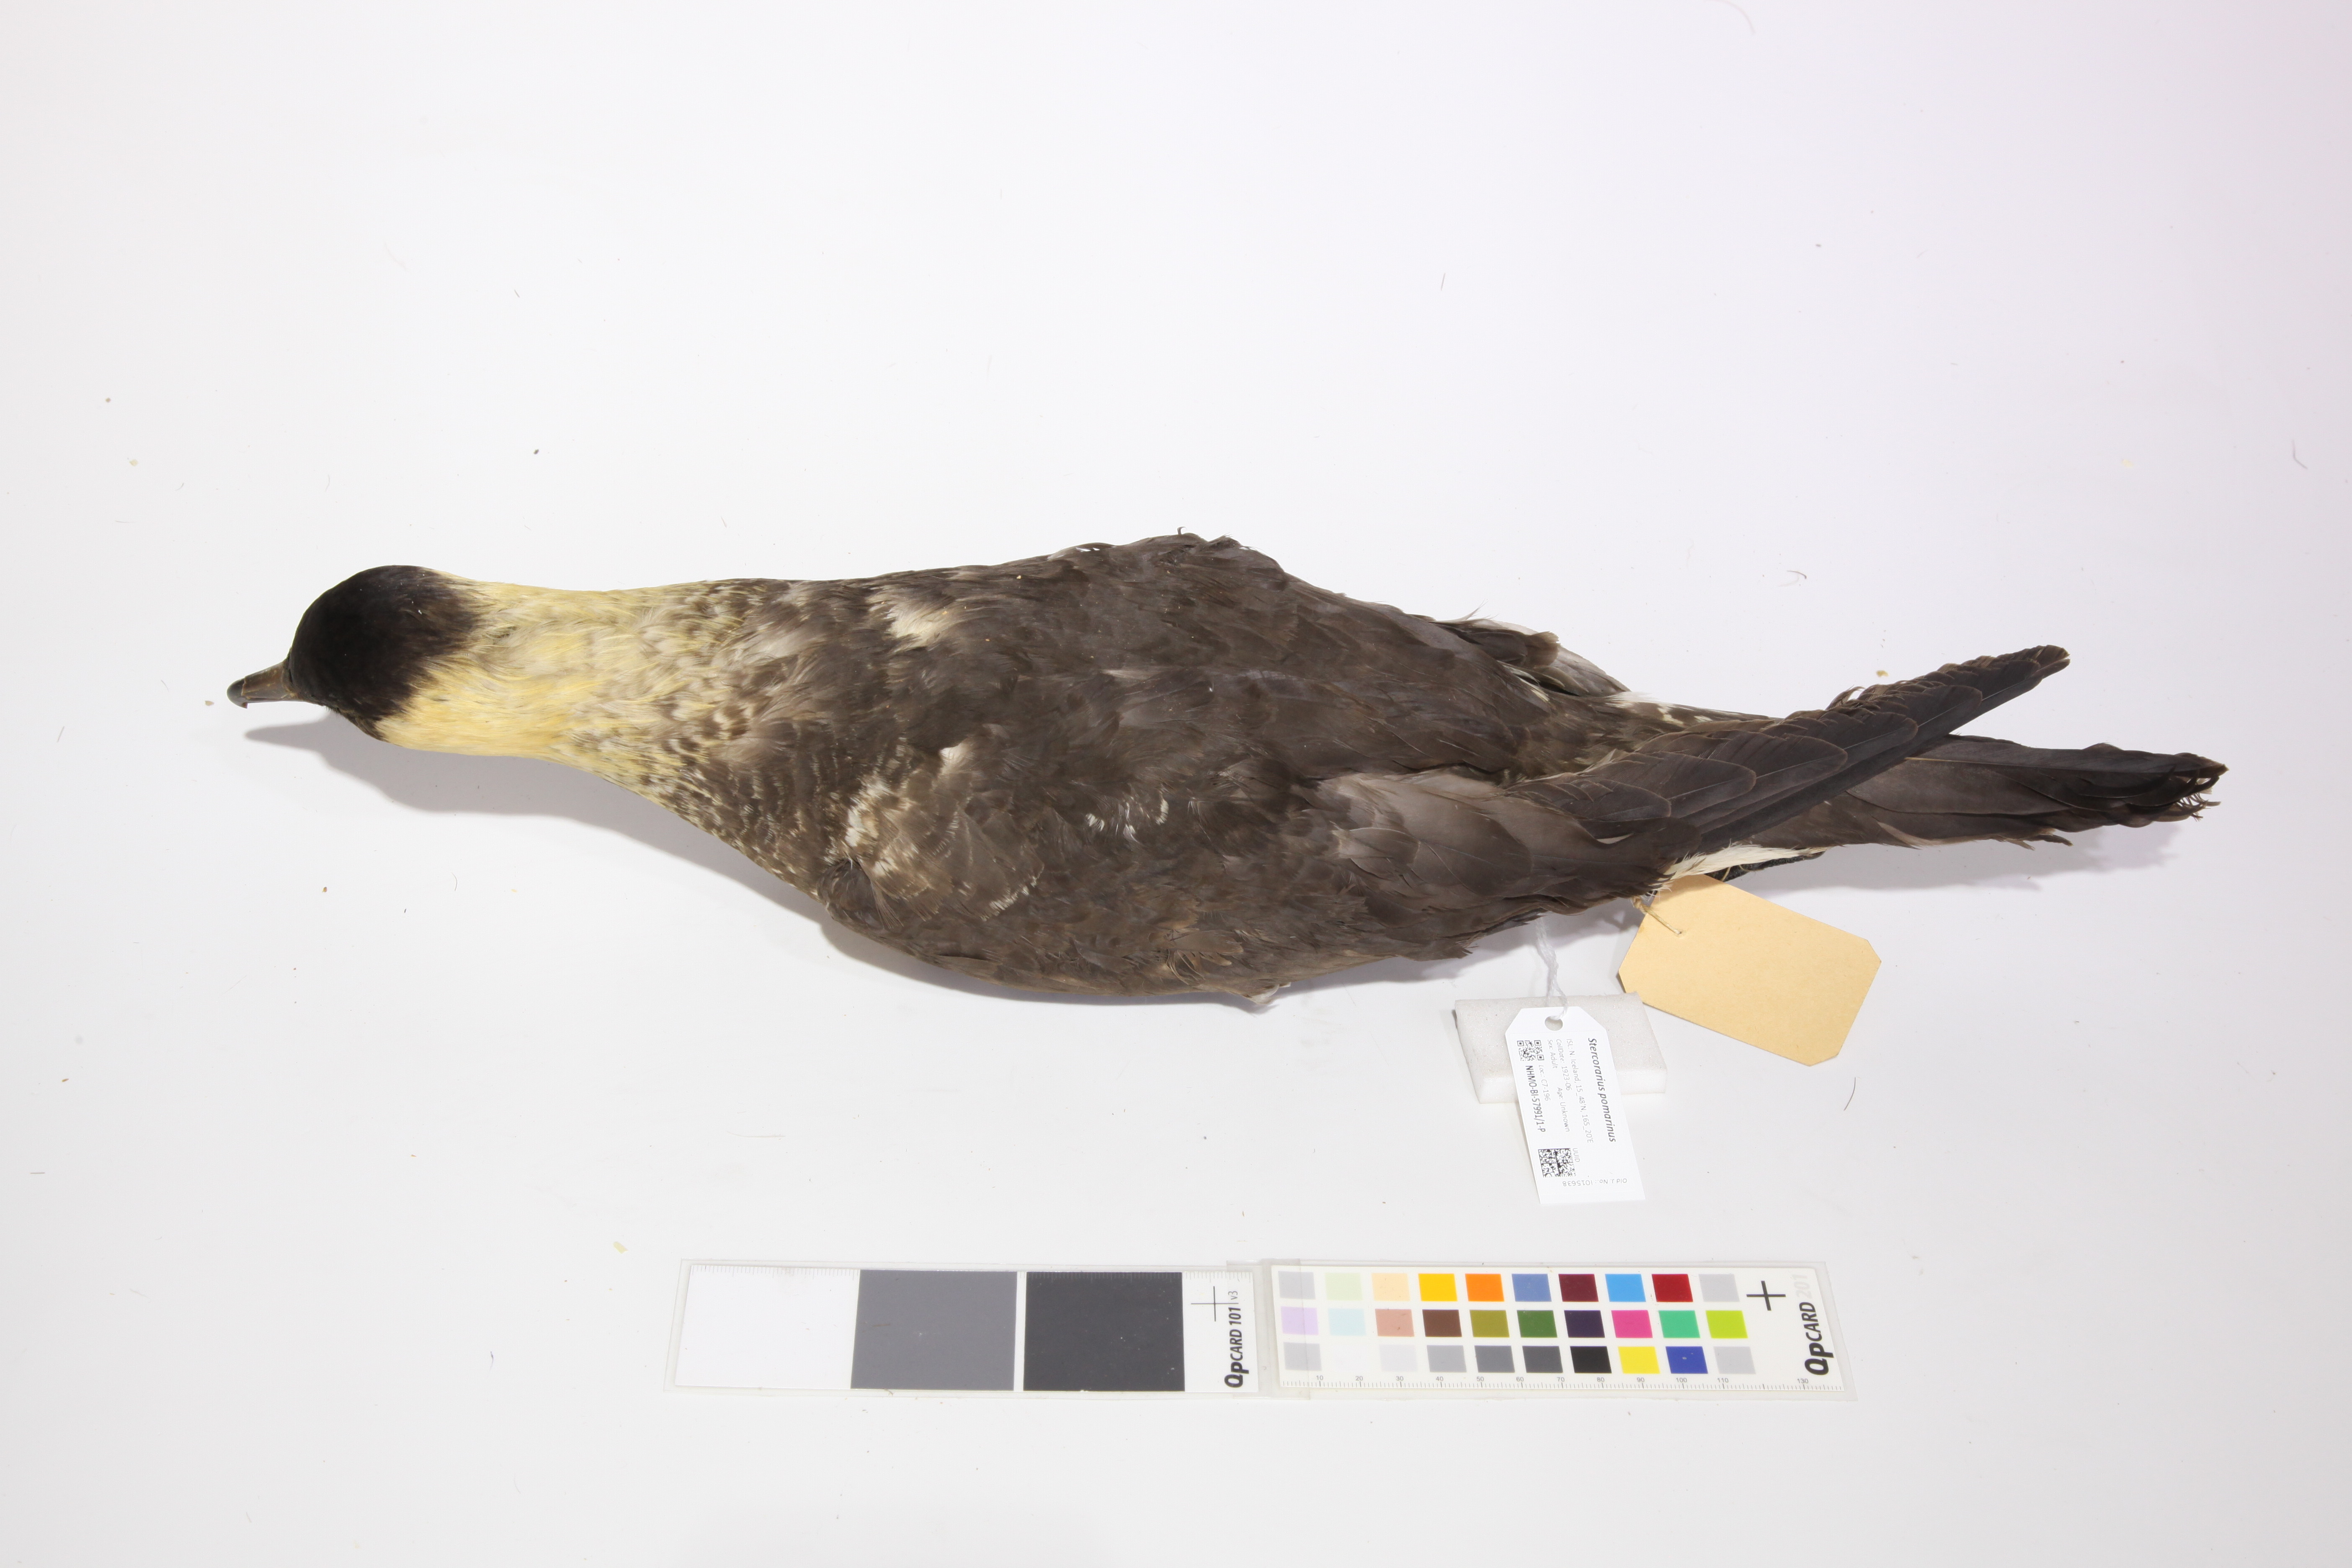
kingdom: Animalia
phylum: Chordata
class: Aves
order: Charadriiformes
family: Stercorariidae
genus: Stercorarius
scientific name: Stercorarius pomarinus
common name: Pomarine jaeger
